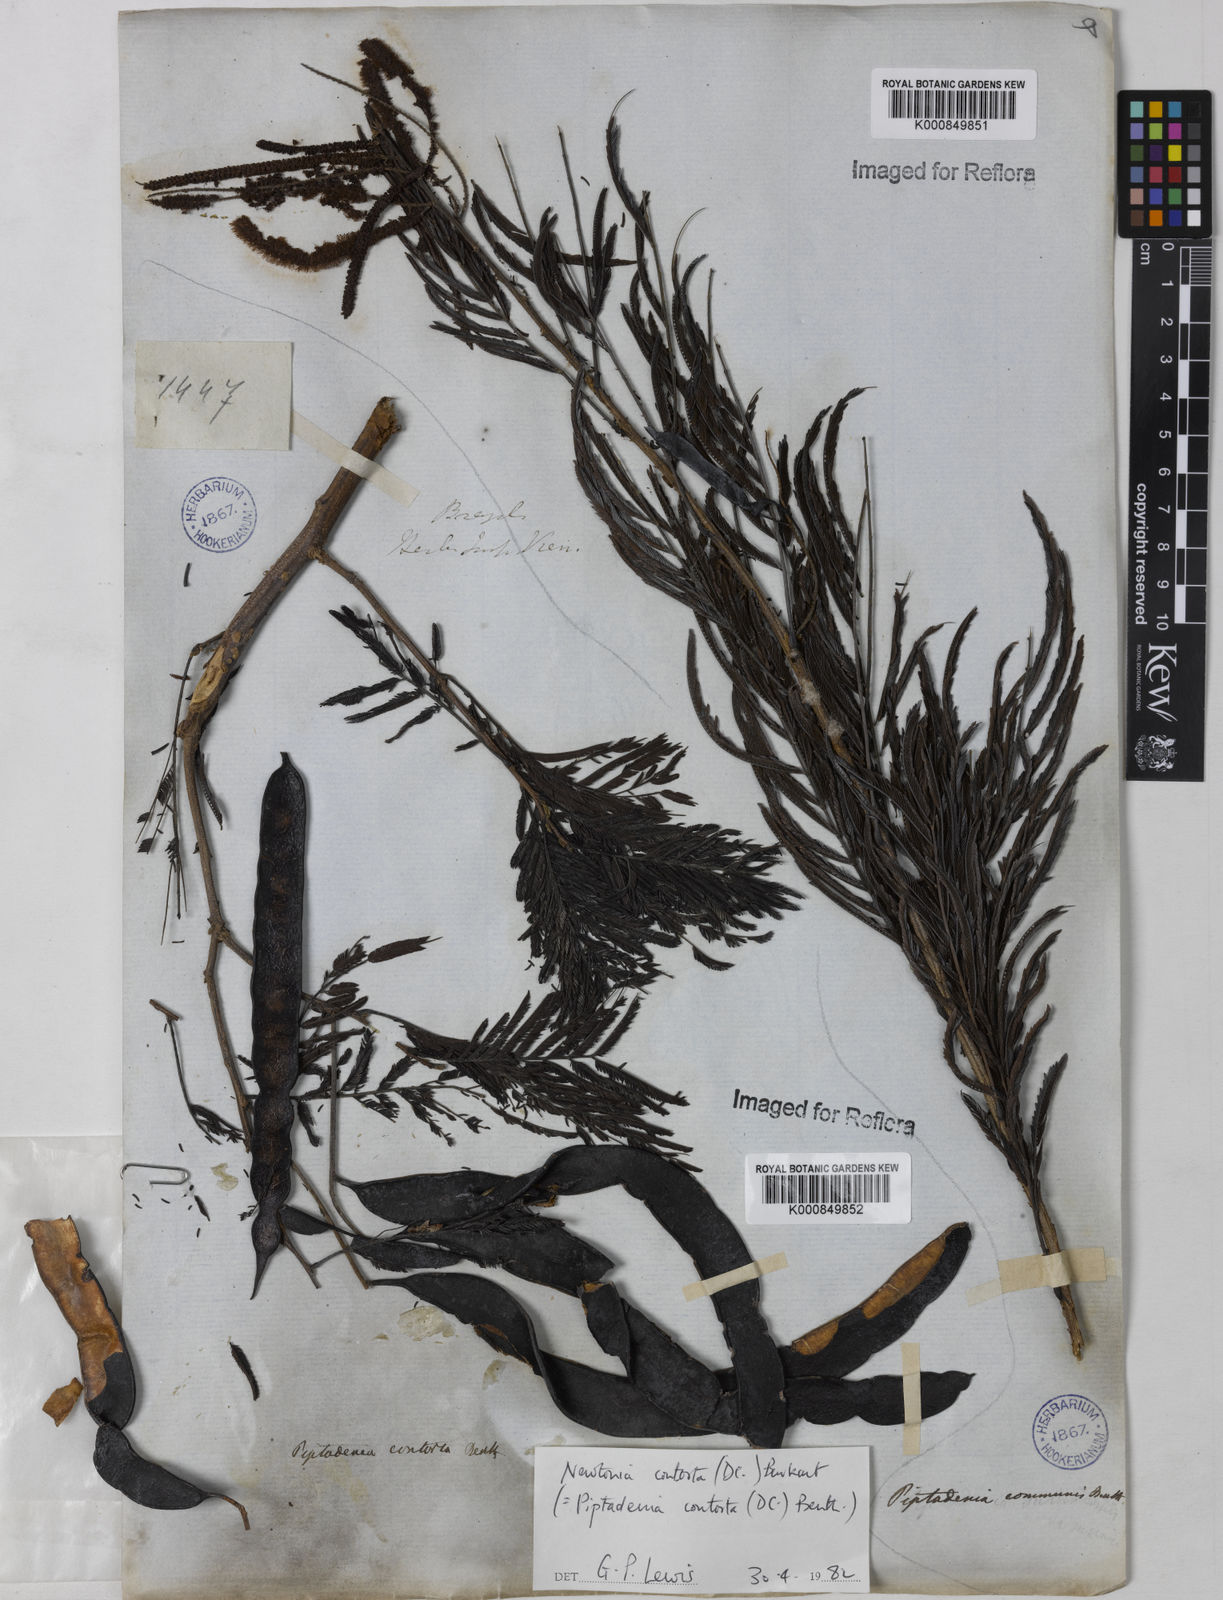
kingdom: Plantae
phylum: Tracheophyta
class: Magnoliopsida
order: Fabales
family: Fabaceae
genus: Piptadenia
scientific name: Piptadenia gonoacantha
